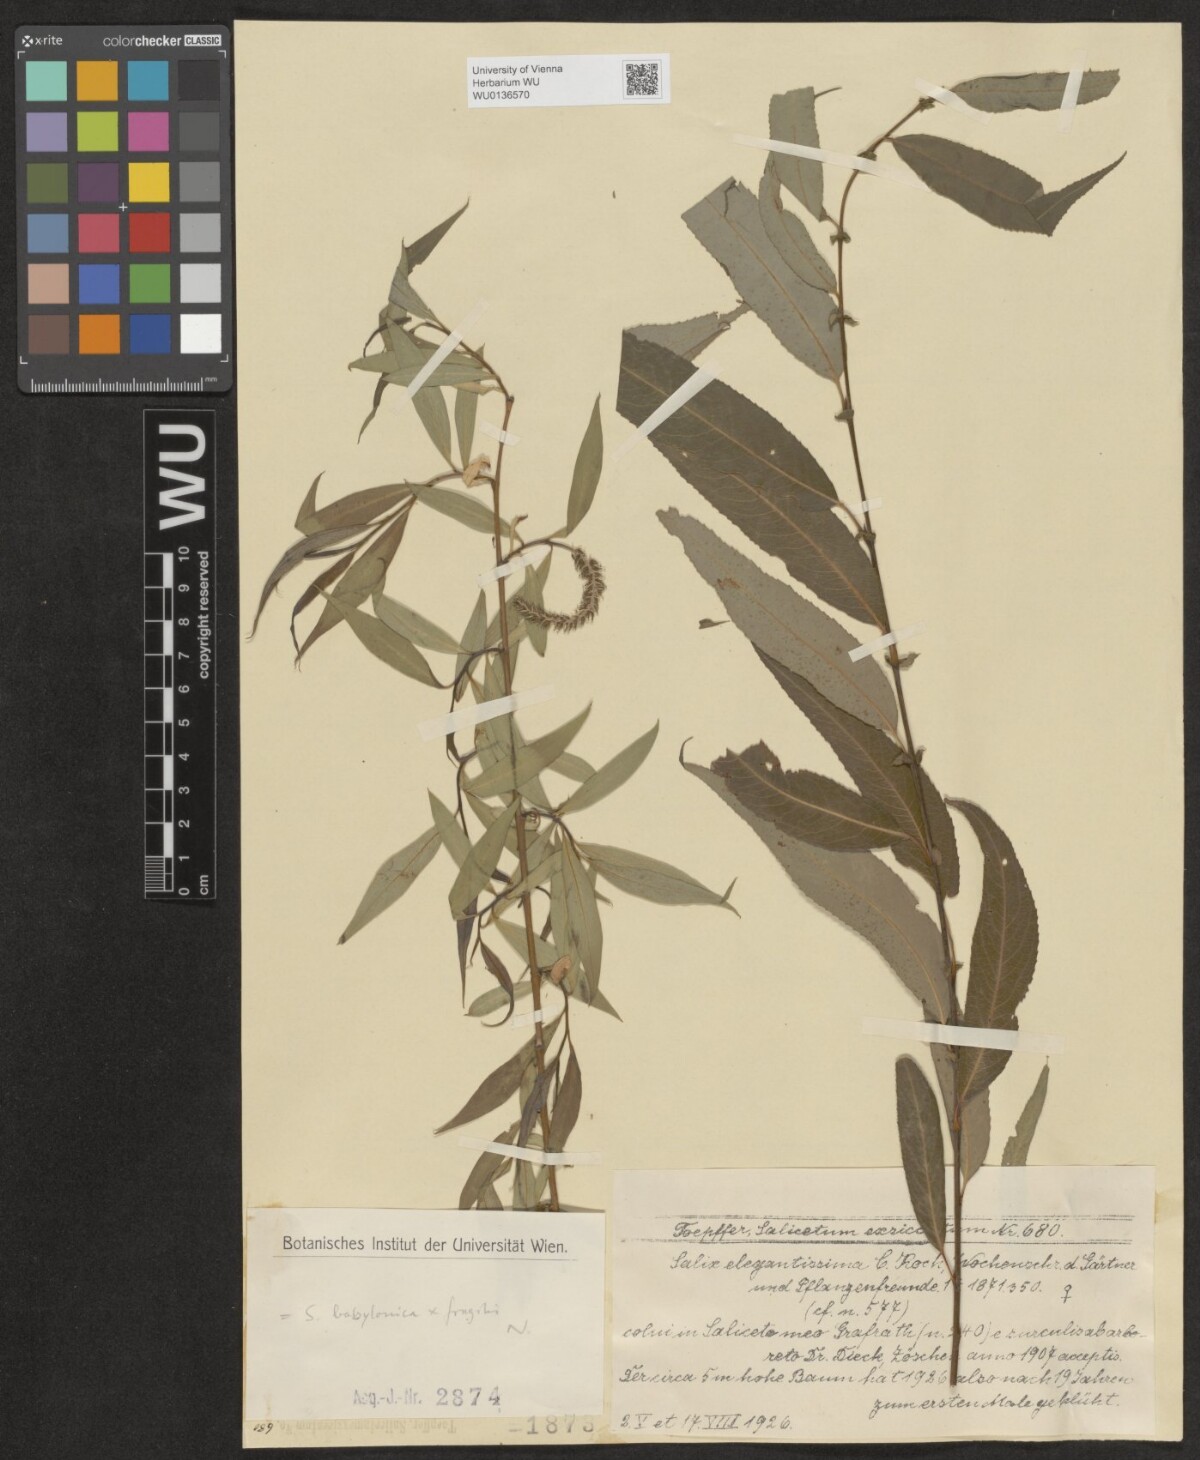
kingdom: Plantae
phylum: Tracheophyta
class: Magnoliopsida
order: Malpighiales
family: Salicaceae
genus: Salix
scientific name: Salix pendulina
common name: Wisconsin weeping willow
